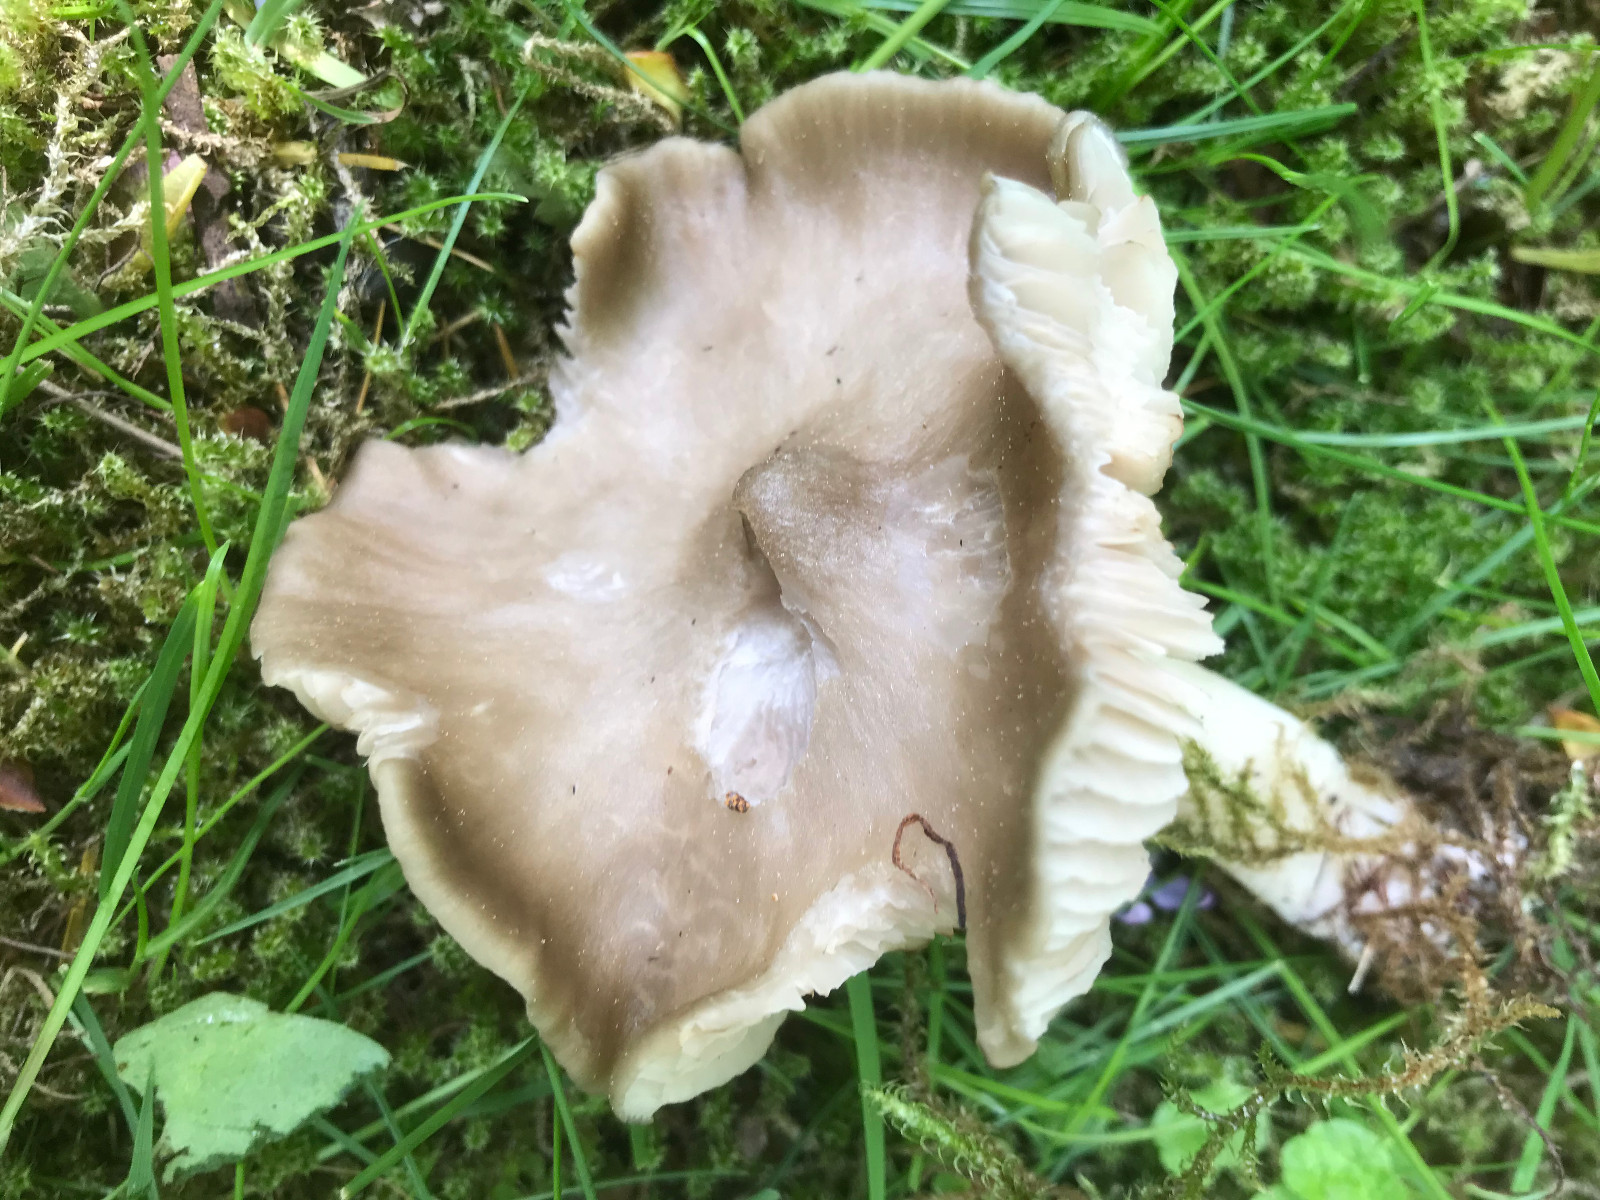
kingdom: Fungi
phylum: Basidiomycota
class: Agaricomycetes
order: Agaricales
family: Entolomataceae
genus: Entoloma
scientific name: Entoloma
